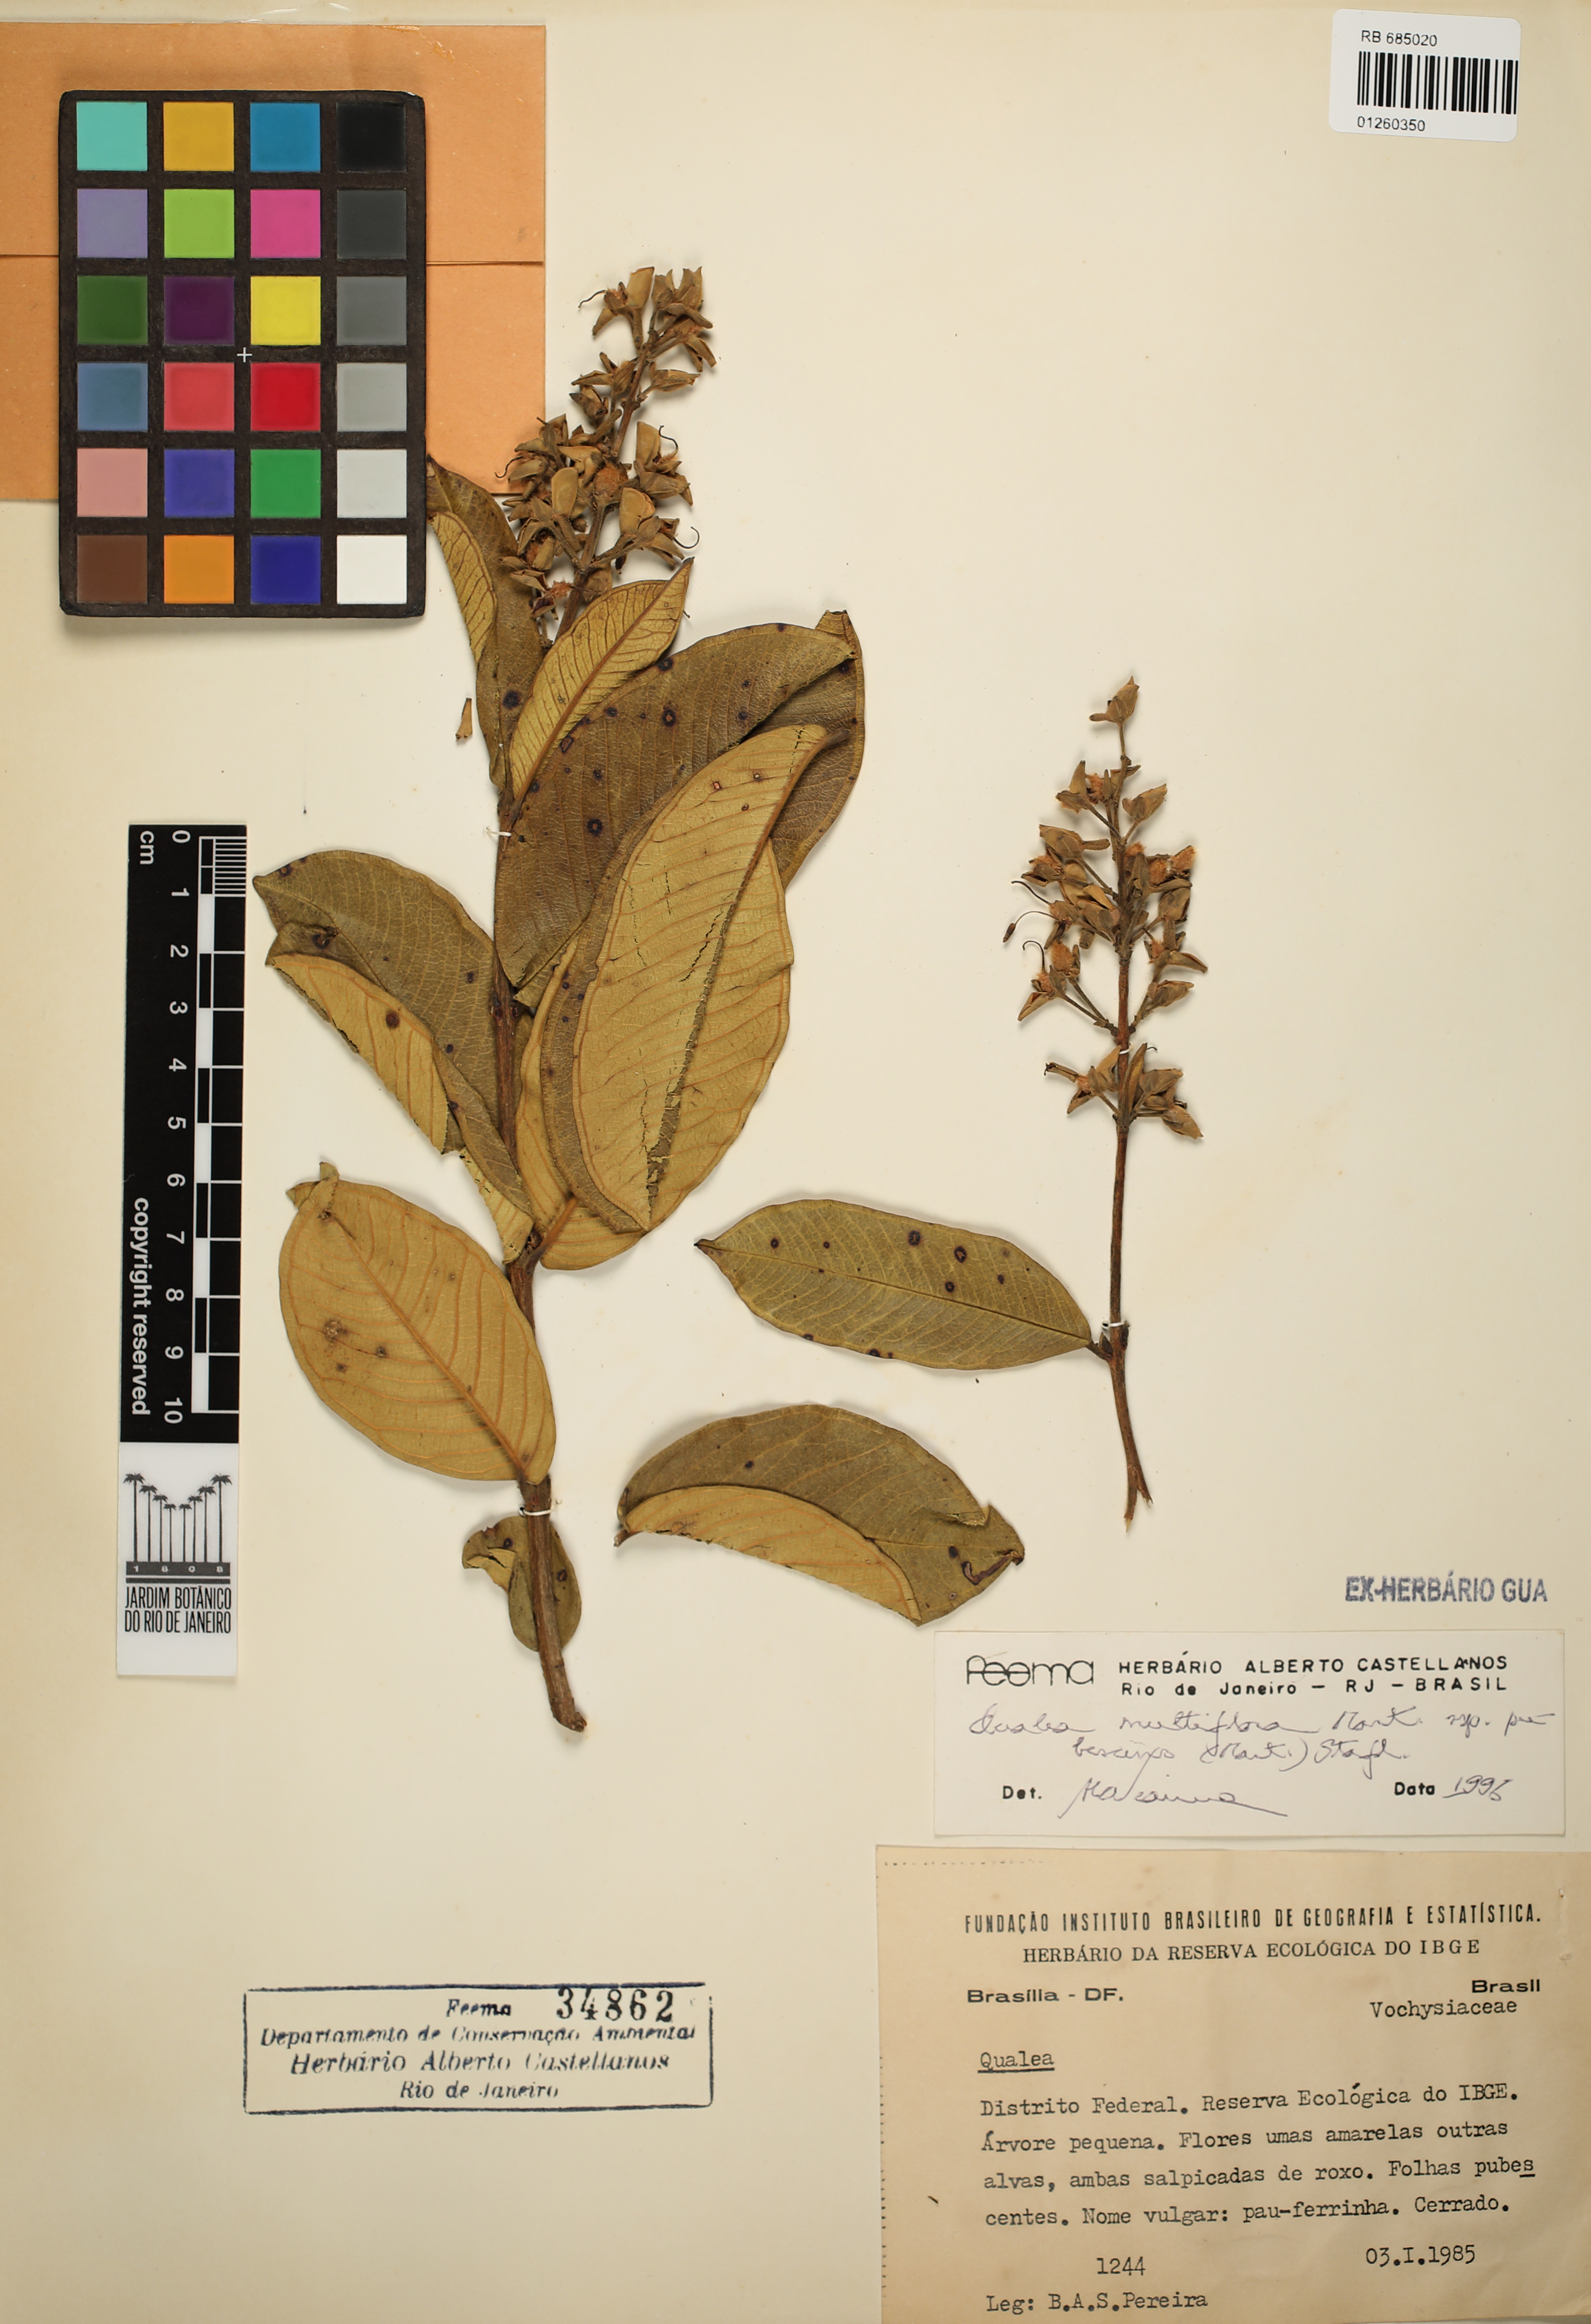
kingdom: Plantae
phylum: Tracheophyta
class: Magnoliopsida
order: Myrtales
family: Vochysiaceae
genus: Qualea
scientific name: Qualea multiflora
